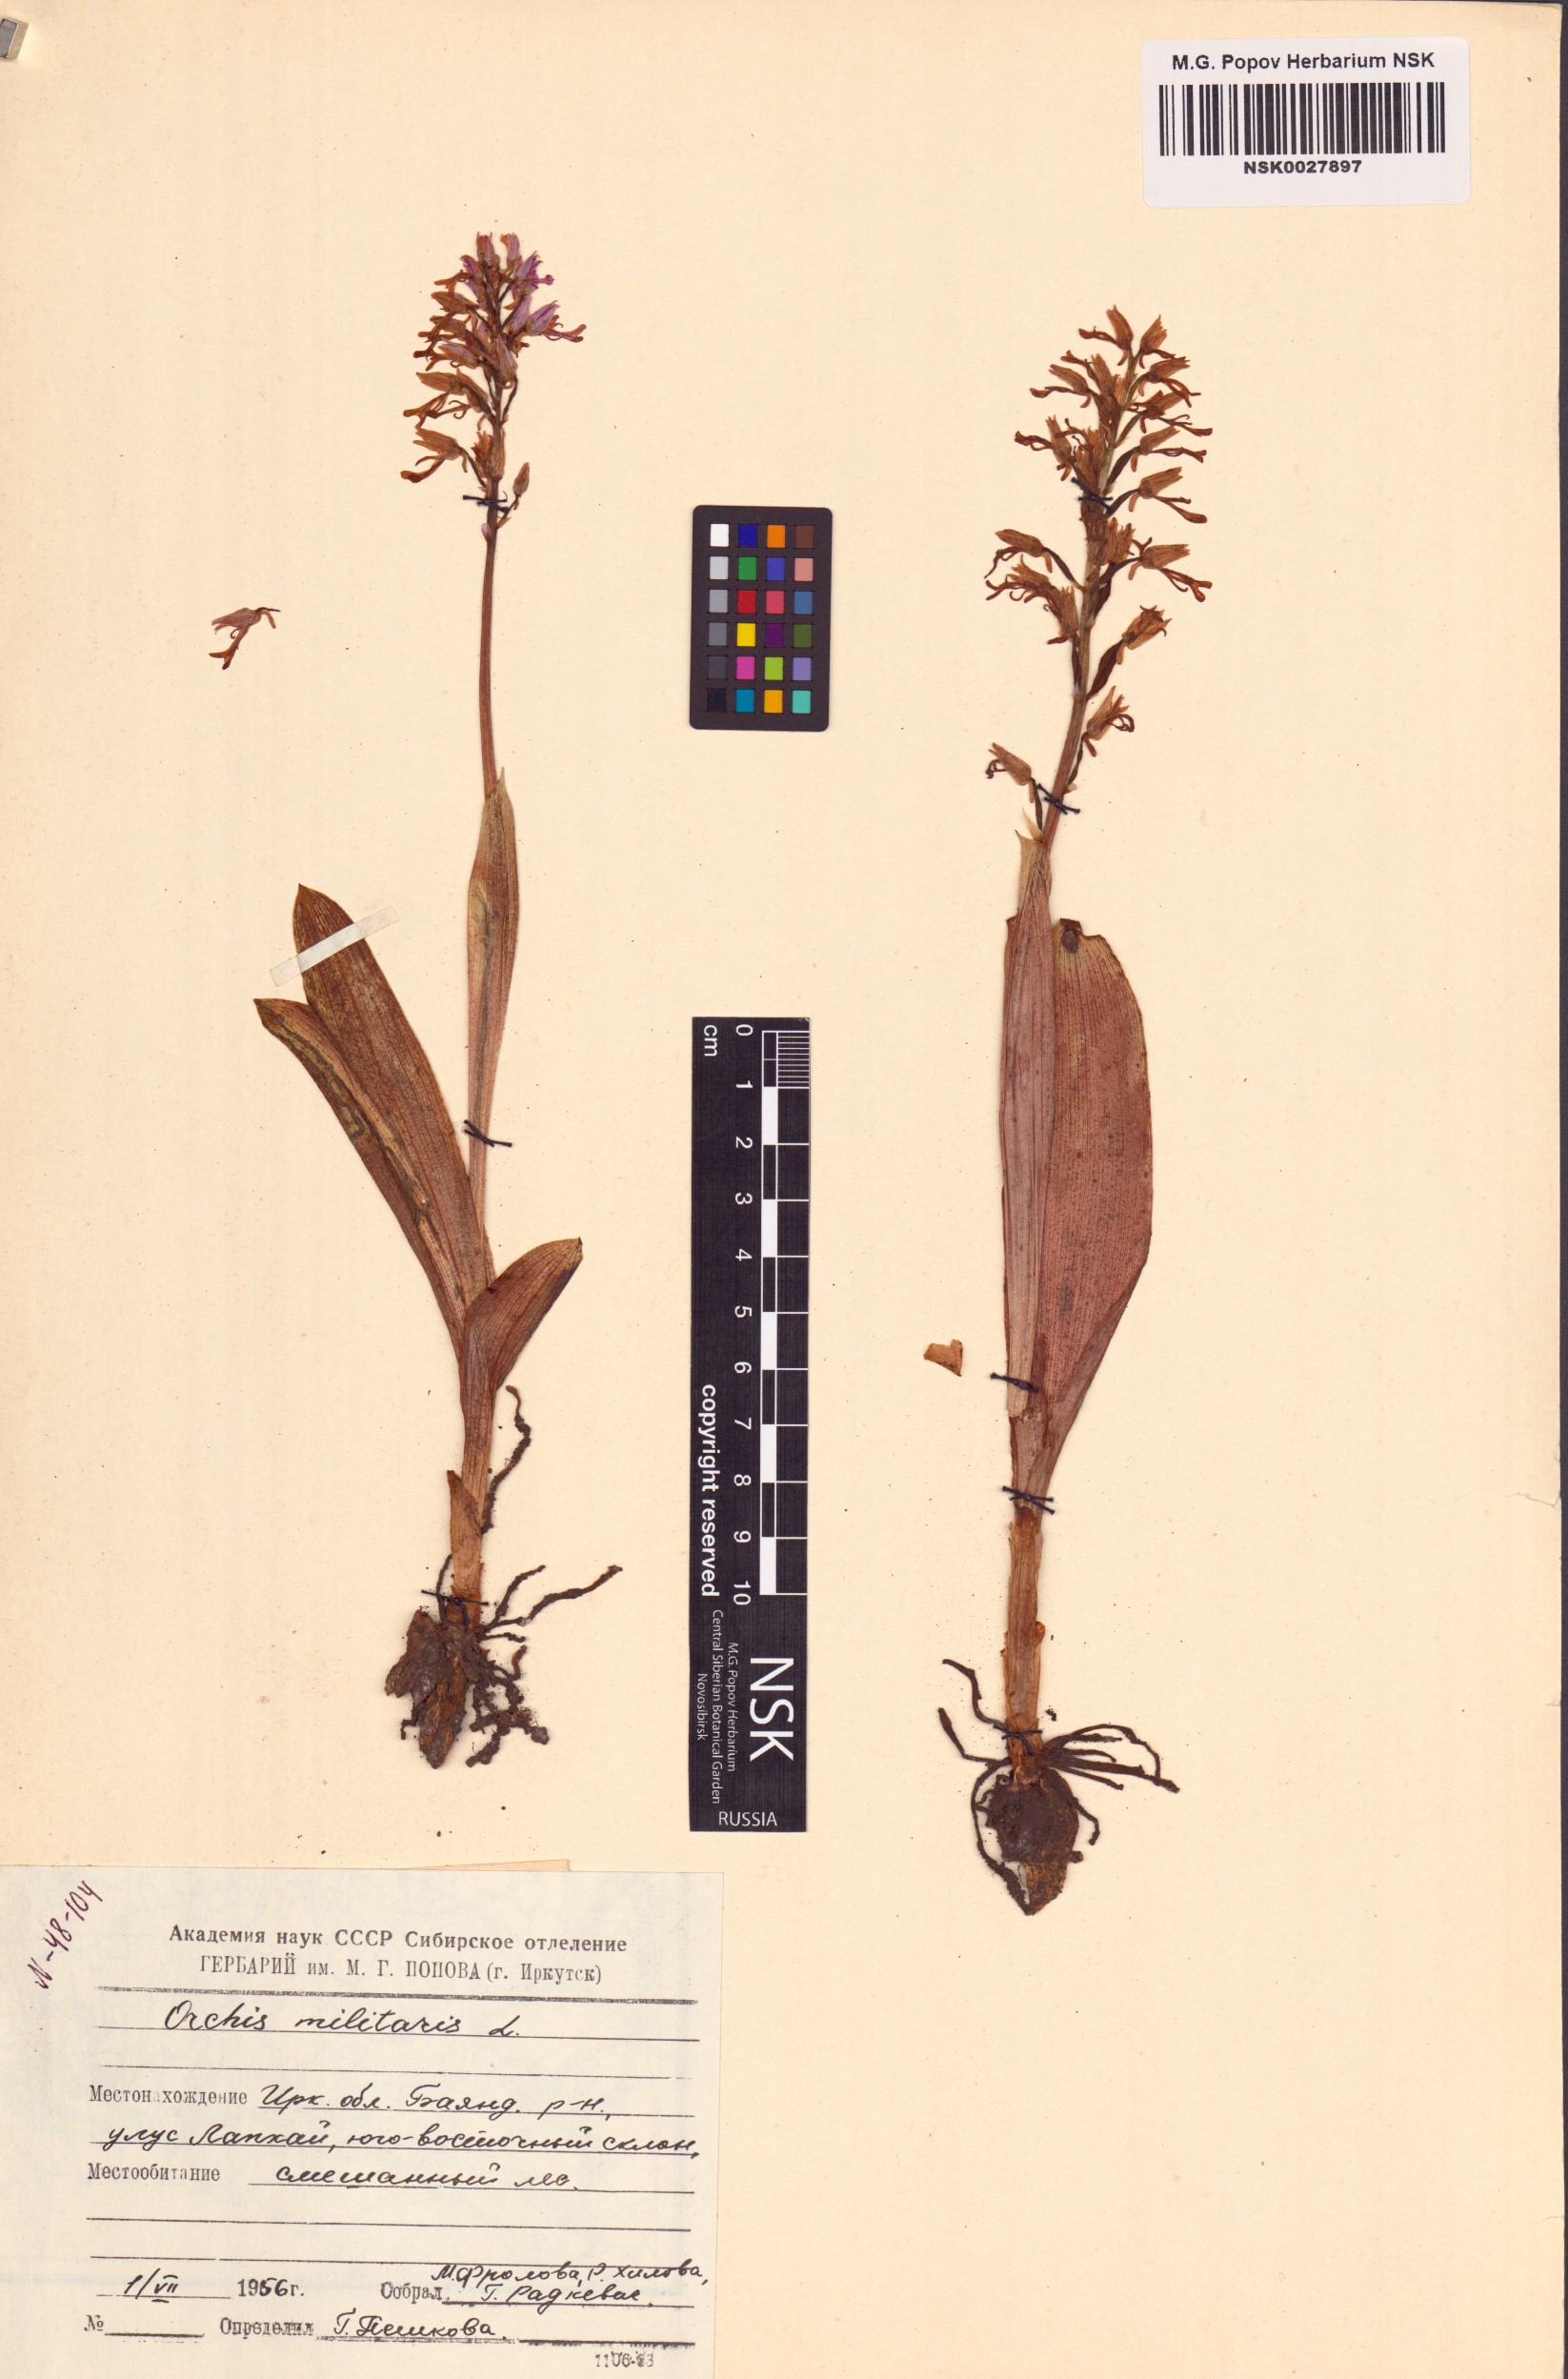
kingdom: Plantae
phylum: Tracheophyta
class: Liliopsida
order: Asparagales
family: Orchidaceae
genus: Orchis
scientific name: Orchis militaris
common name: Military orchid
